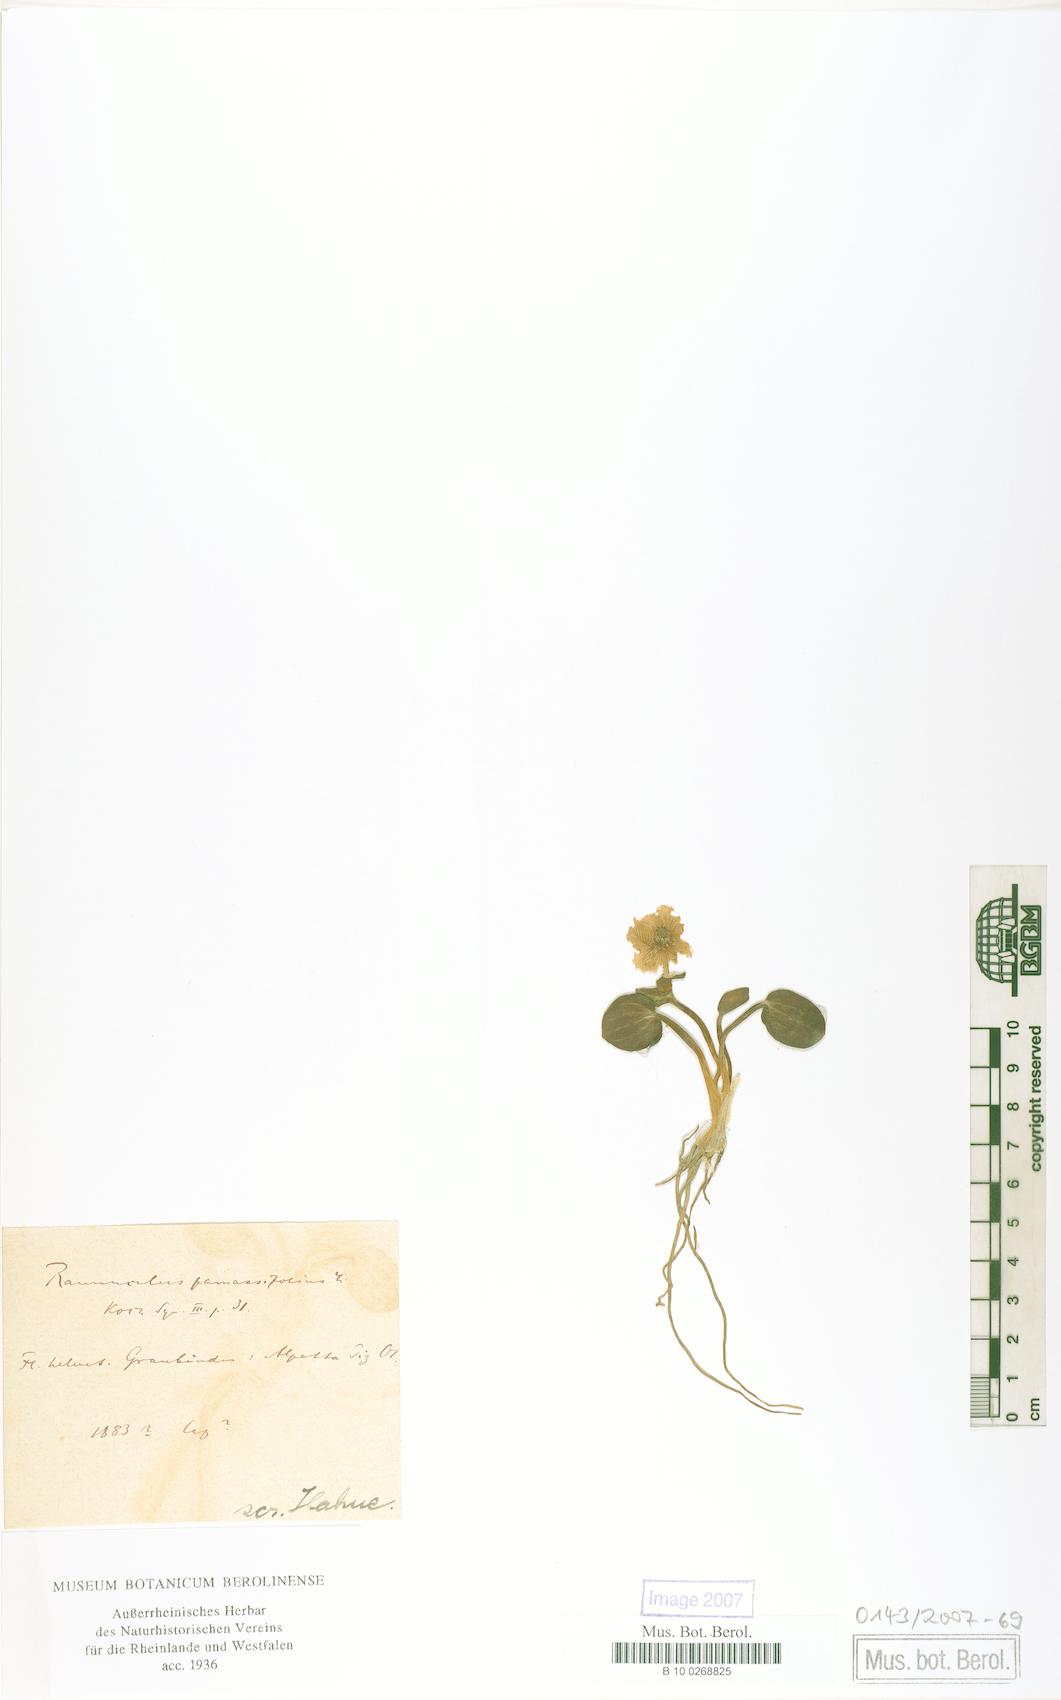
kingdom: Plantae
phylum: Tracheophyta
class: Magnoliopsida
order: Ranunculales
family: Ranunculaceae
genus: Ranunculus
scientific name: Ranunculus parnassiifolius
